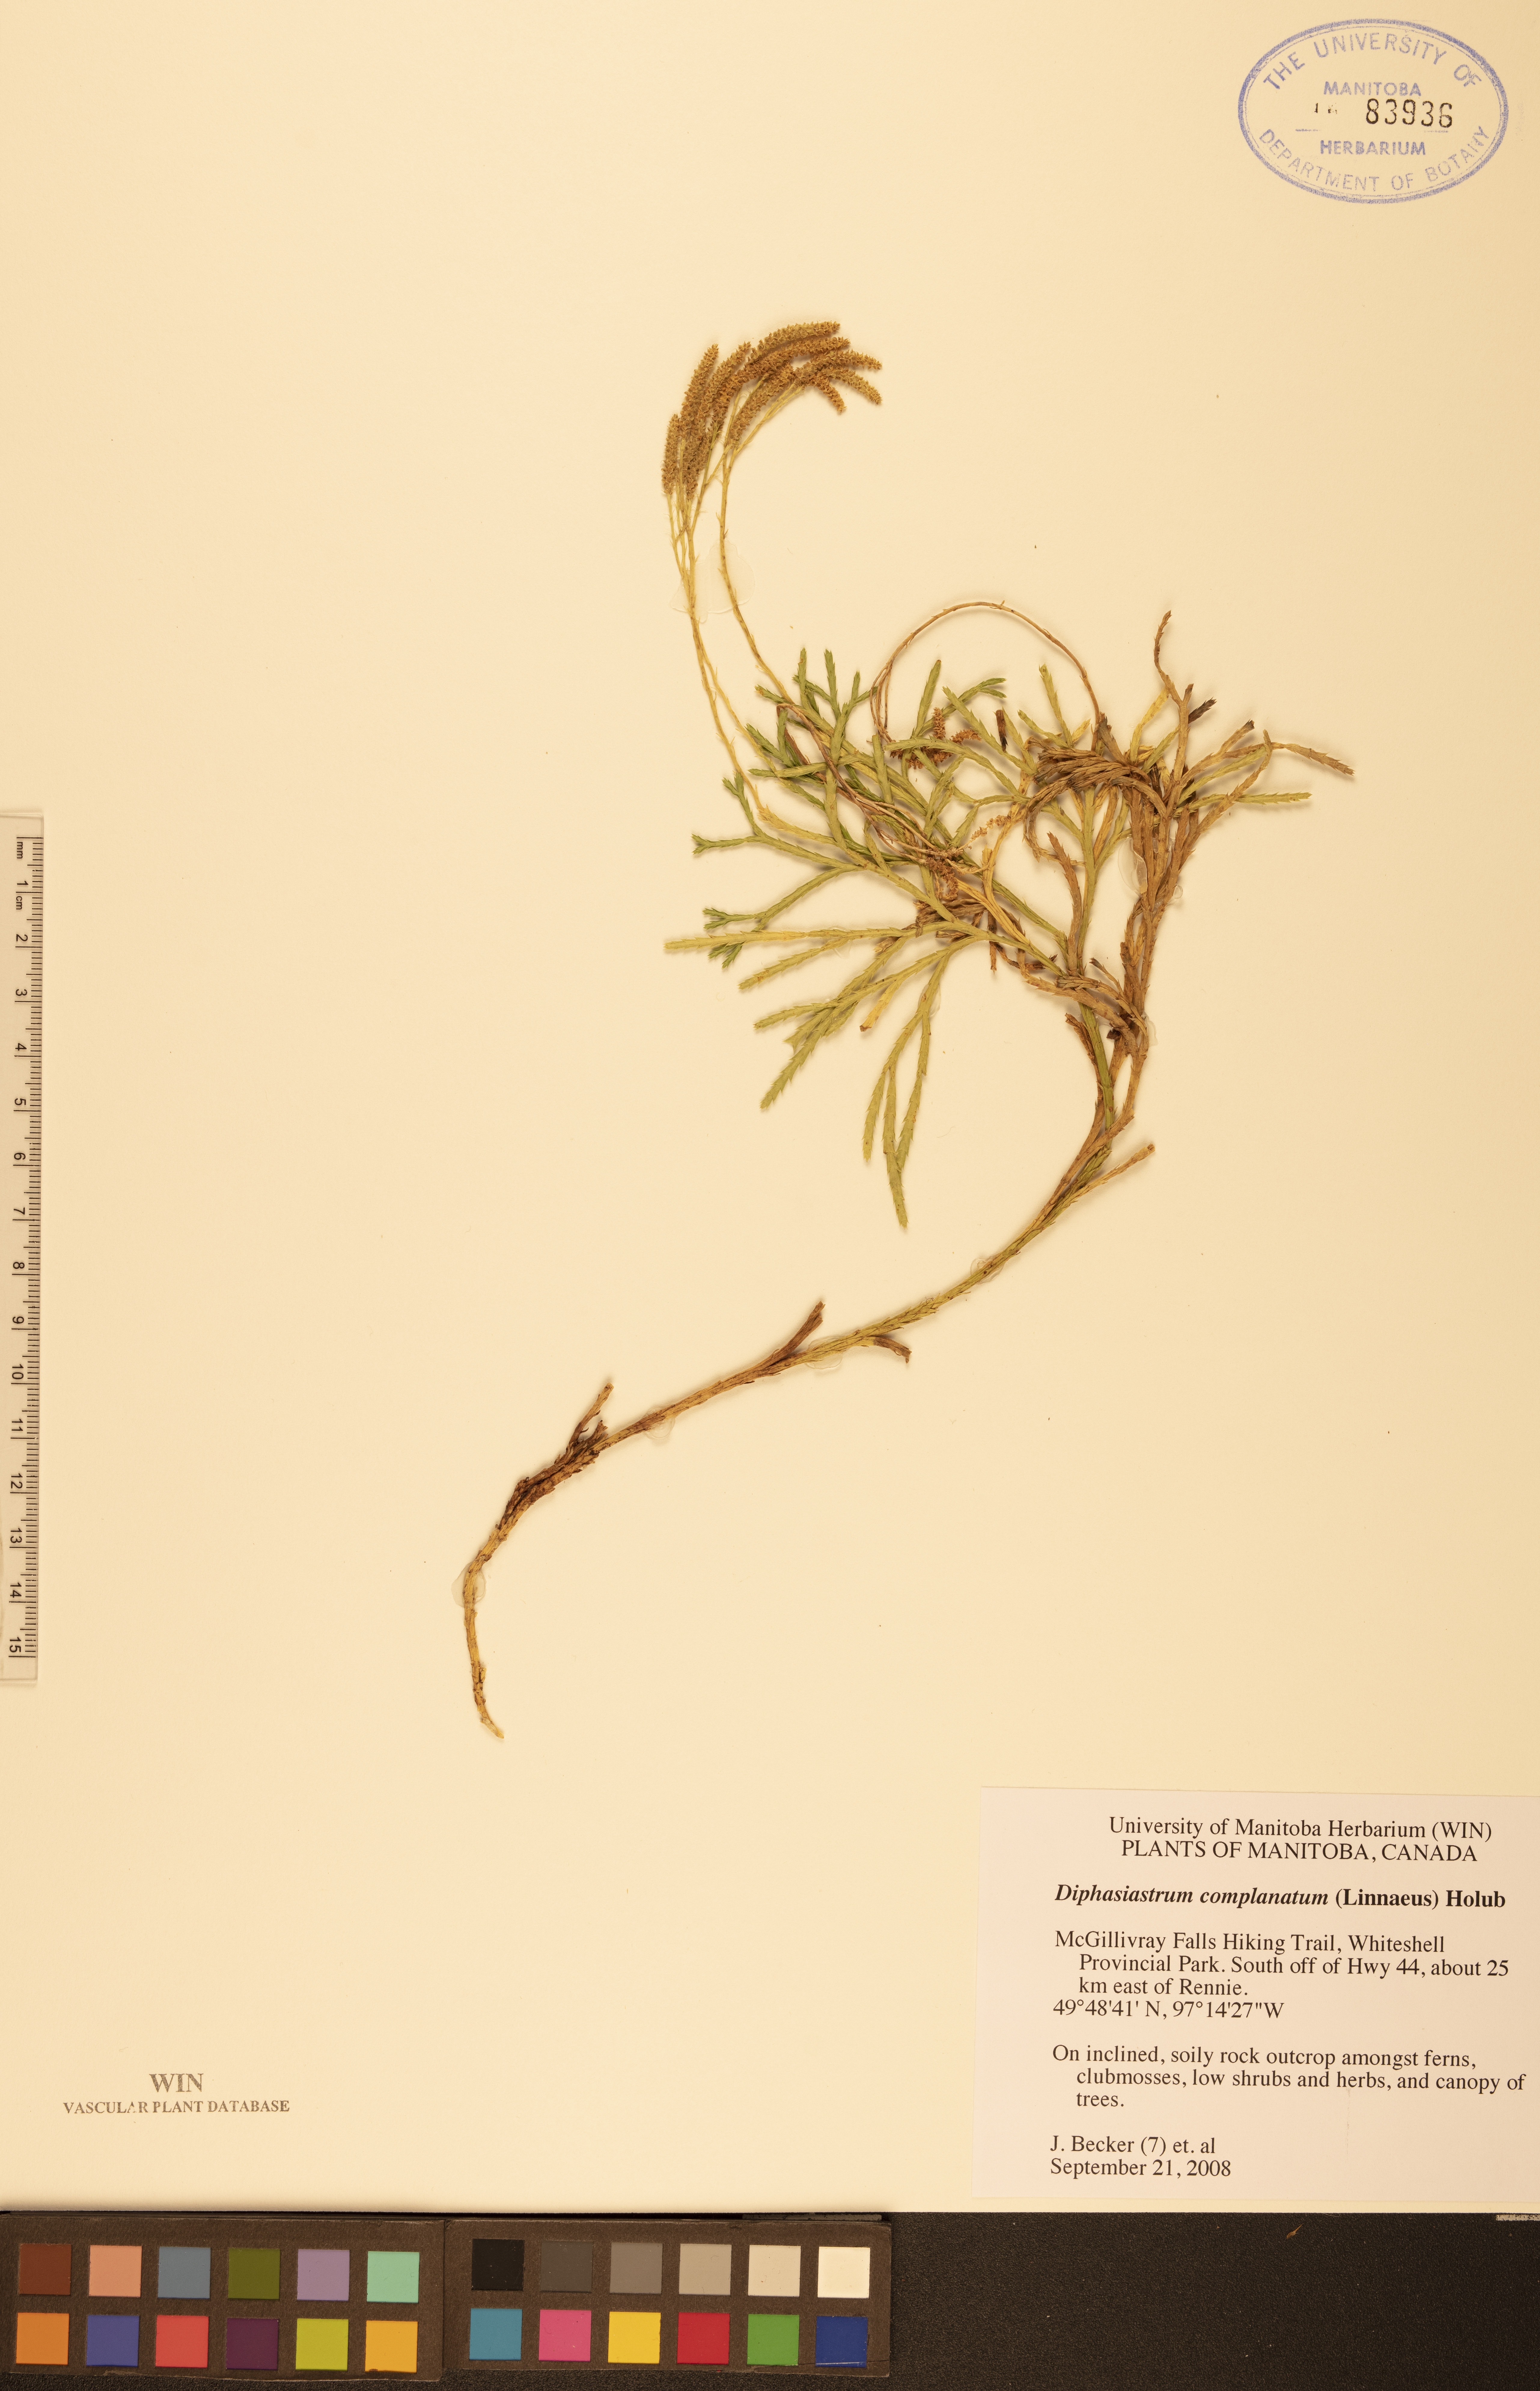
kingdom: Plantae
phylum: Tracheophyta
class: Lycopodiopsida
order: Lycopodiales
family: Lycopodiaceae
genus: Diphasiastrum
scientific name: Diphasiastrum complanatum
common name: Northern running-pine
